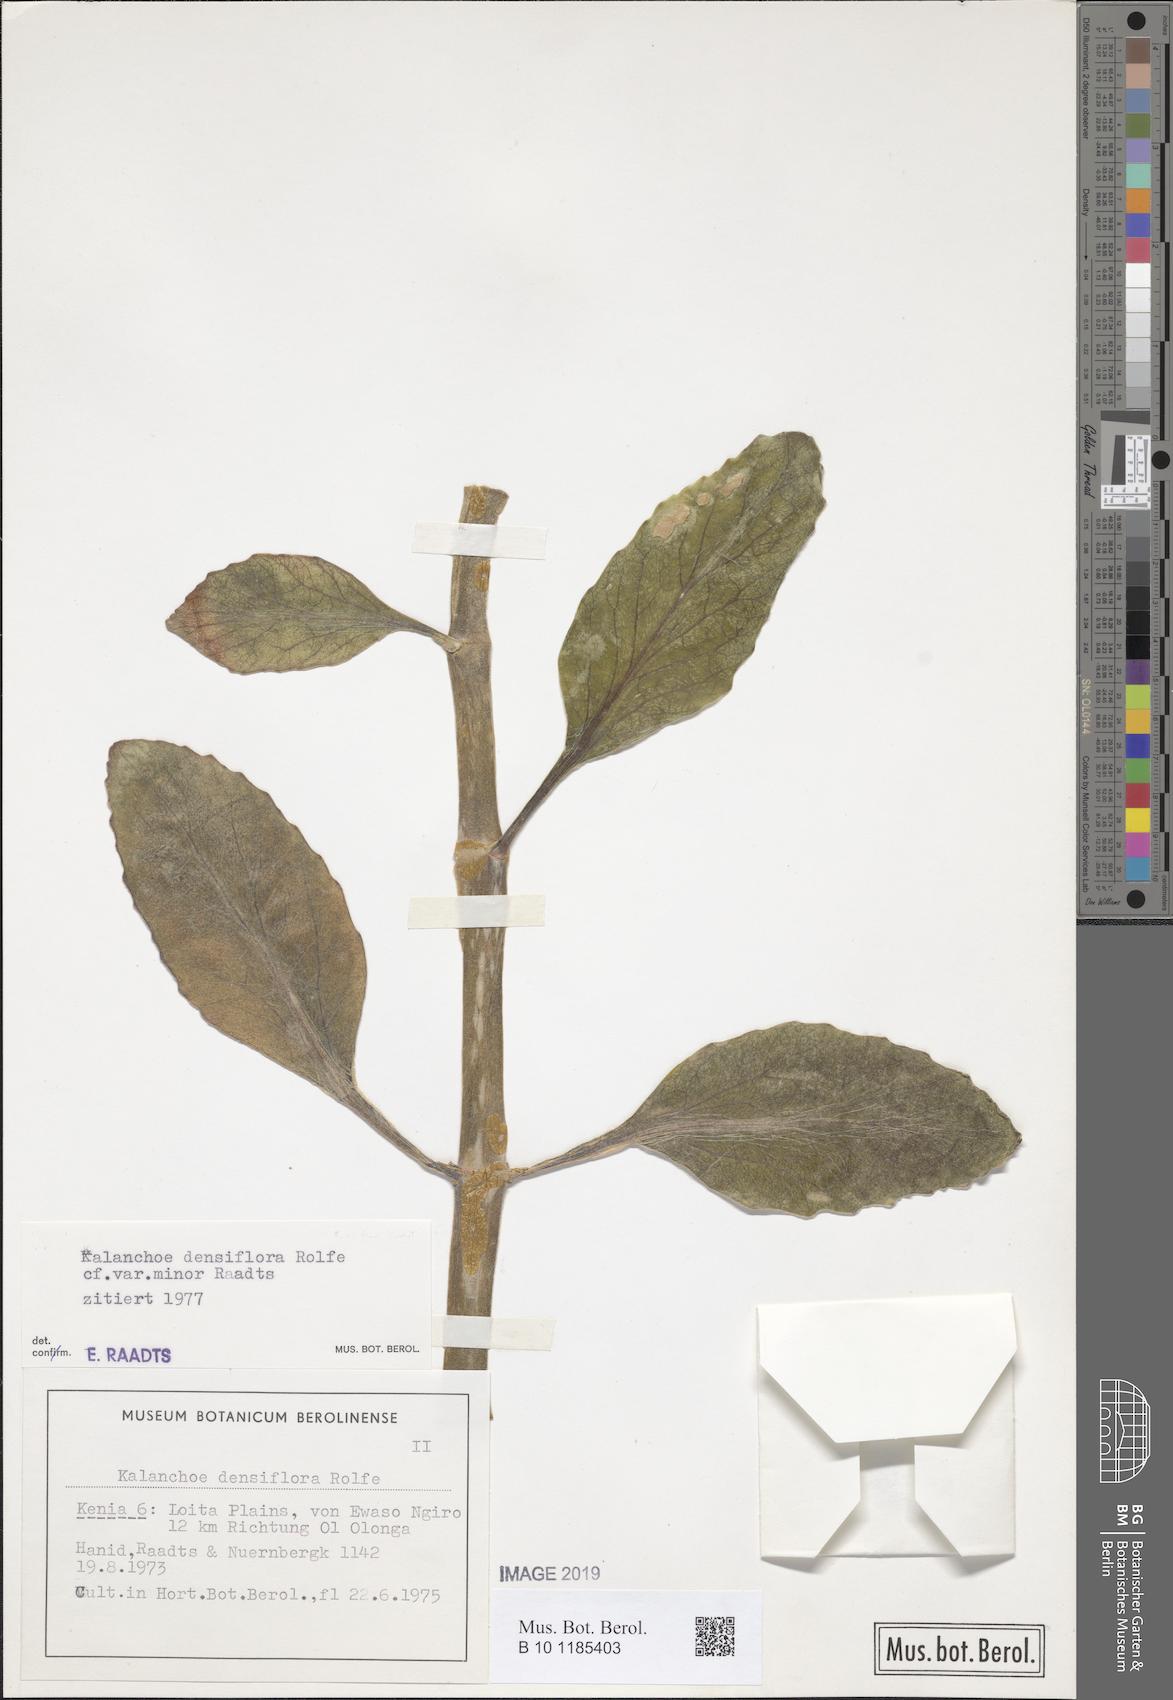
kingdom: Plantae
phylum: Tracheophyta
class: Magnoliopsida
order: Saxifragales
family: Crassulaceae
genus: Kalanchoe
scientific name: Kalanchoe densiflora
